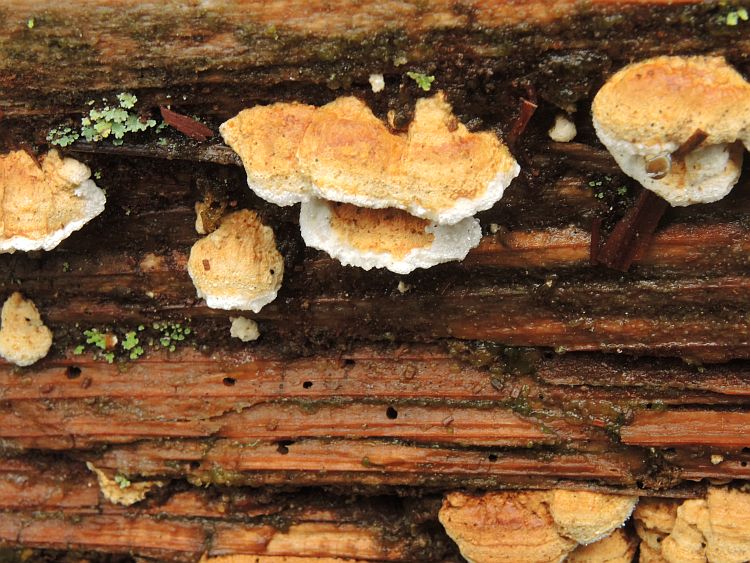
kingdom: Fungi
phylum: Basidiomycota
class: Agaricomycetes
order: Polyporales
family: Fomitopsidaceae
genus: Neoantrodia
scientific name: Neoantrodia serialis
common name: række-sejporesvamp
